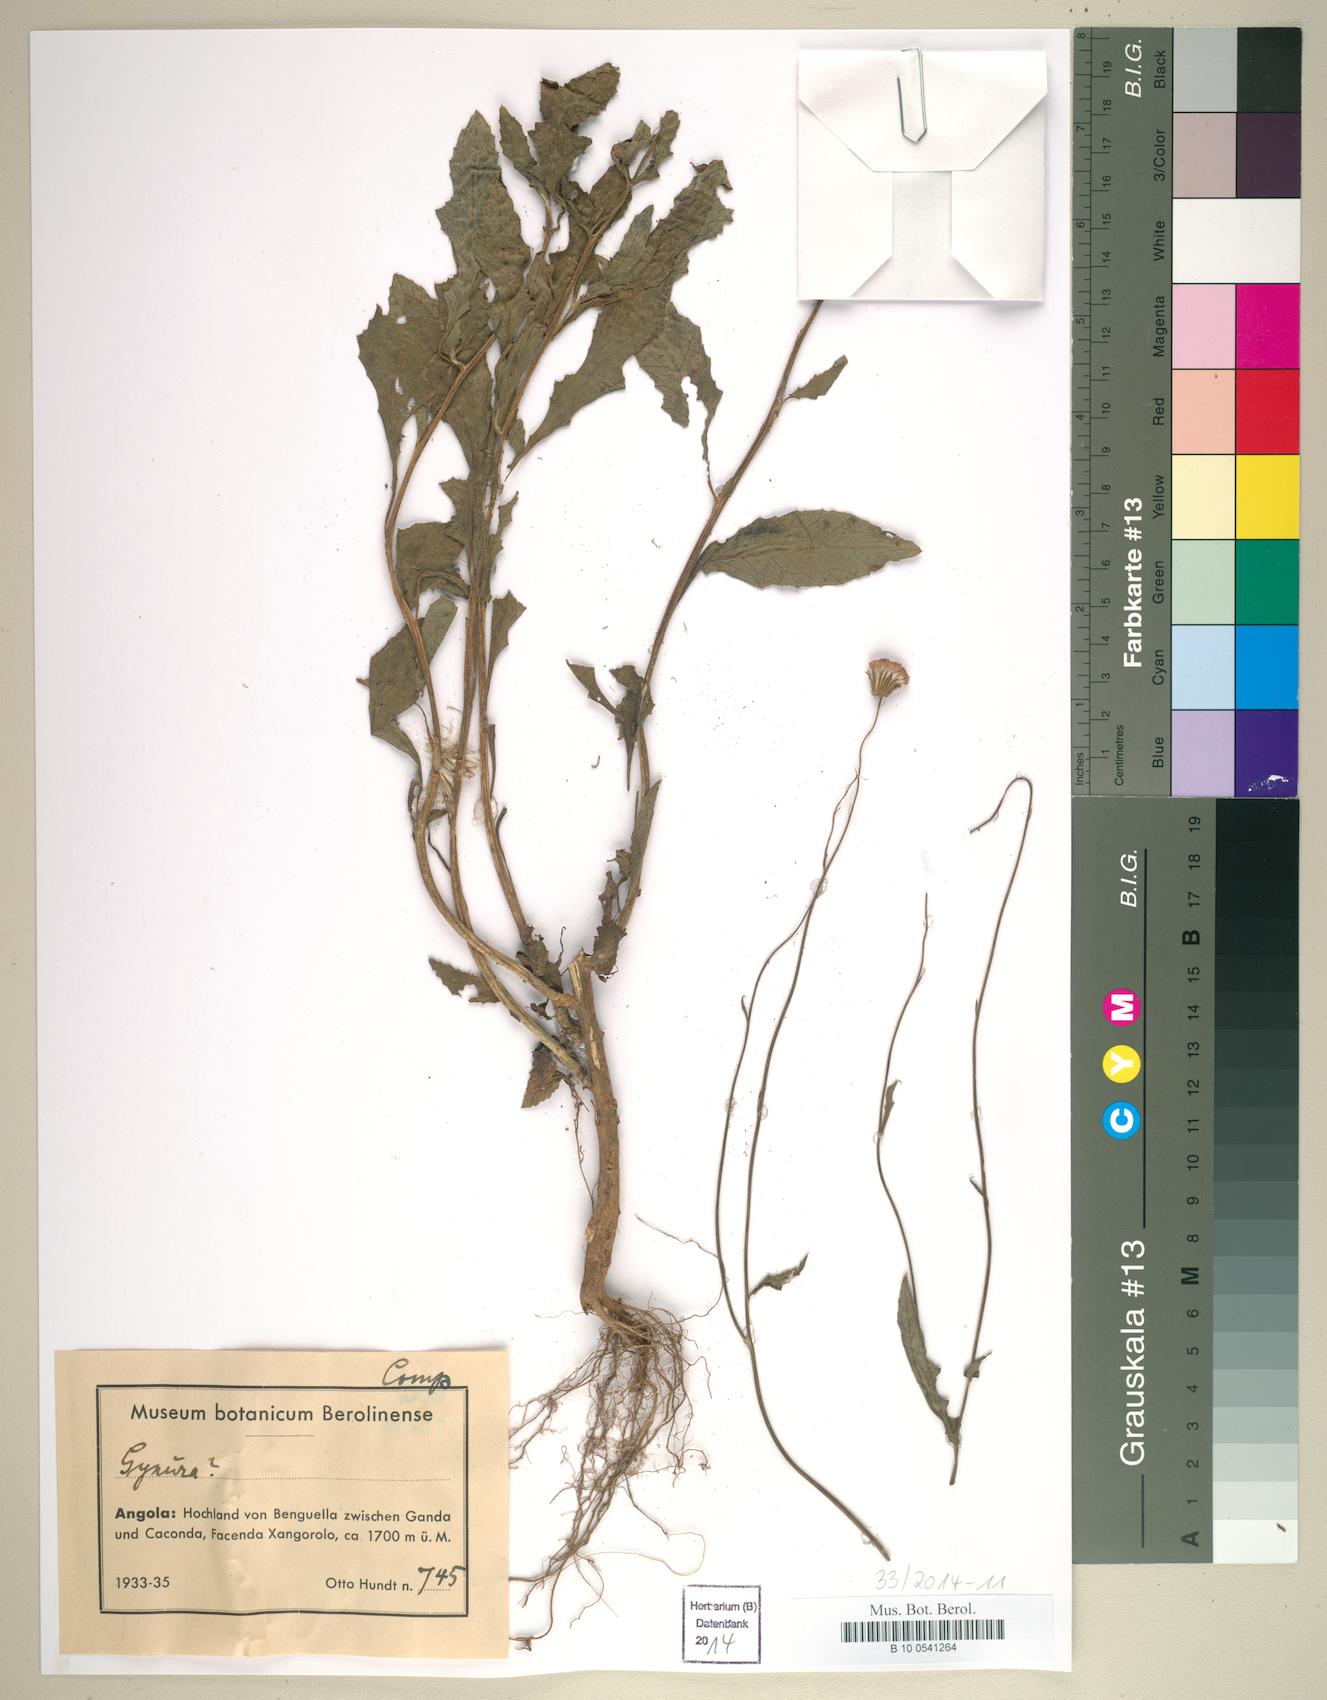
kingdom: Plantae
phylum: Tracheophyta
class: Magnoliopsida
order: Asterales
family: Asteraceae
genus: Gynura
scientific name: Gynura
